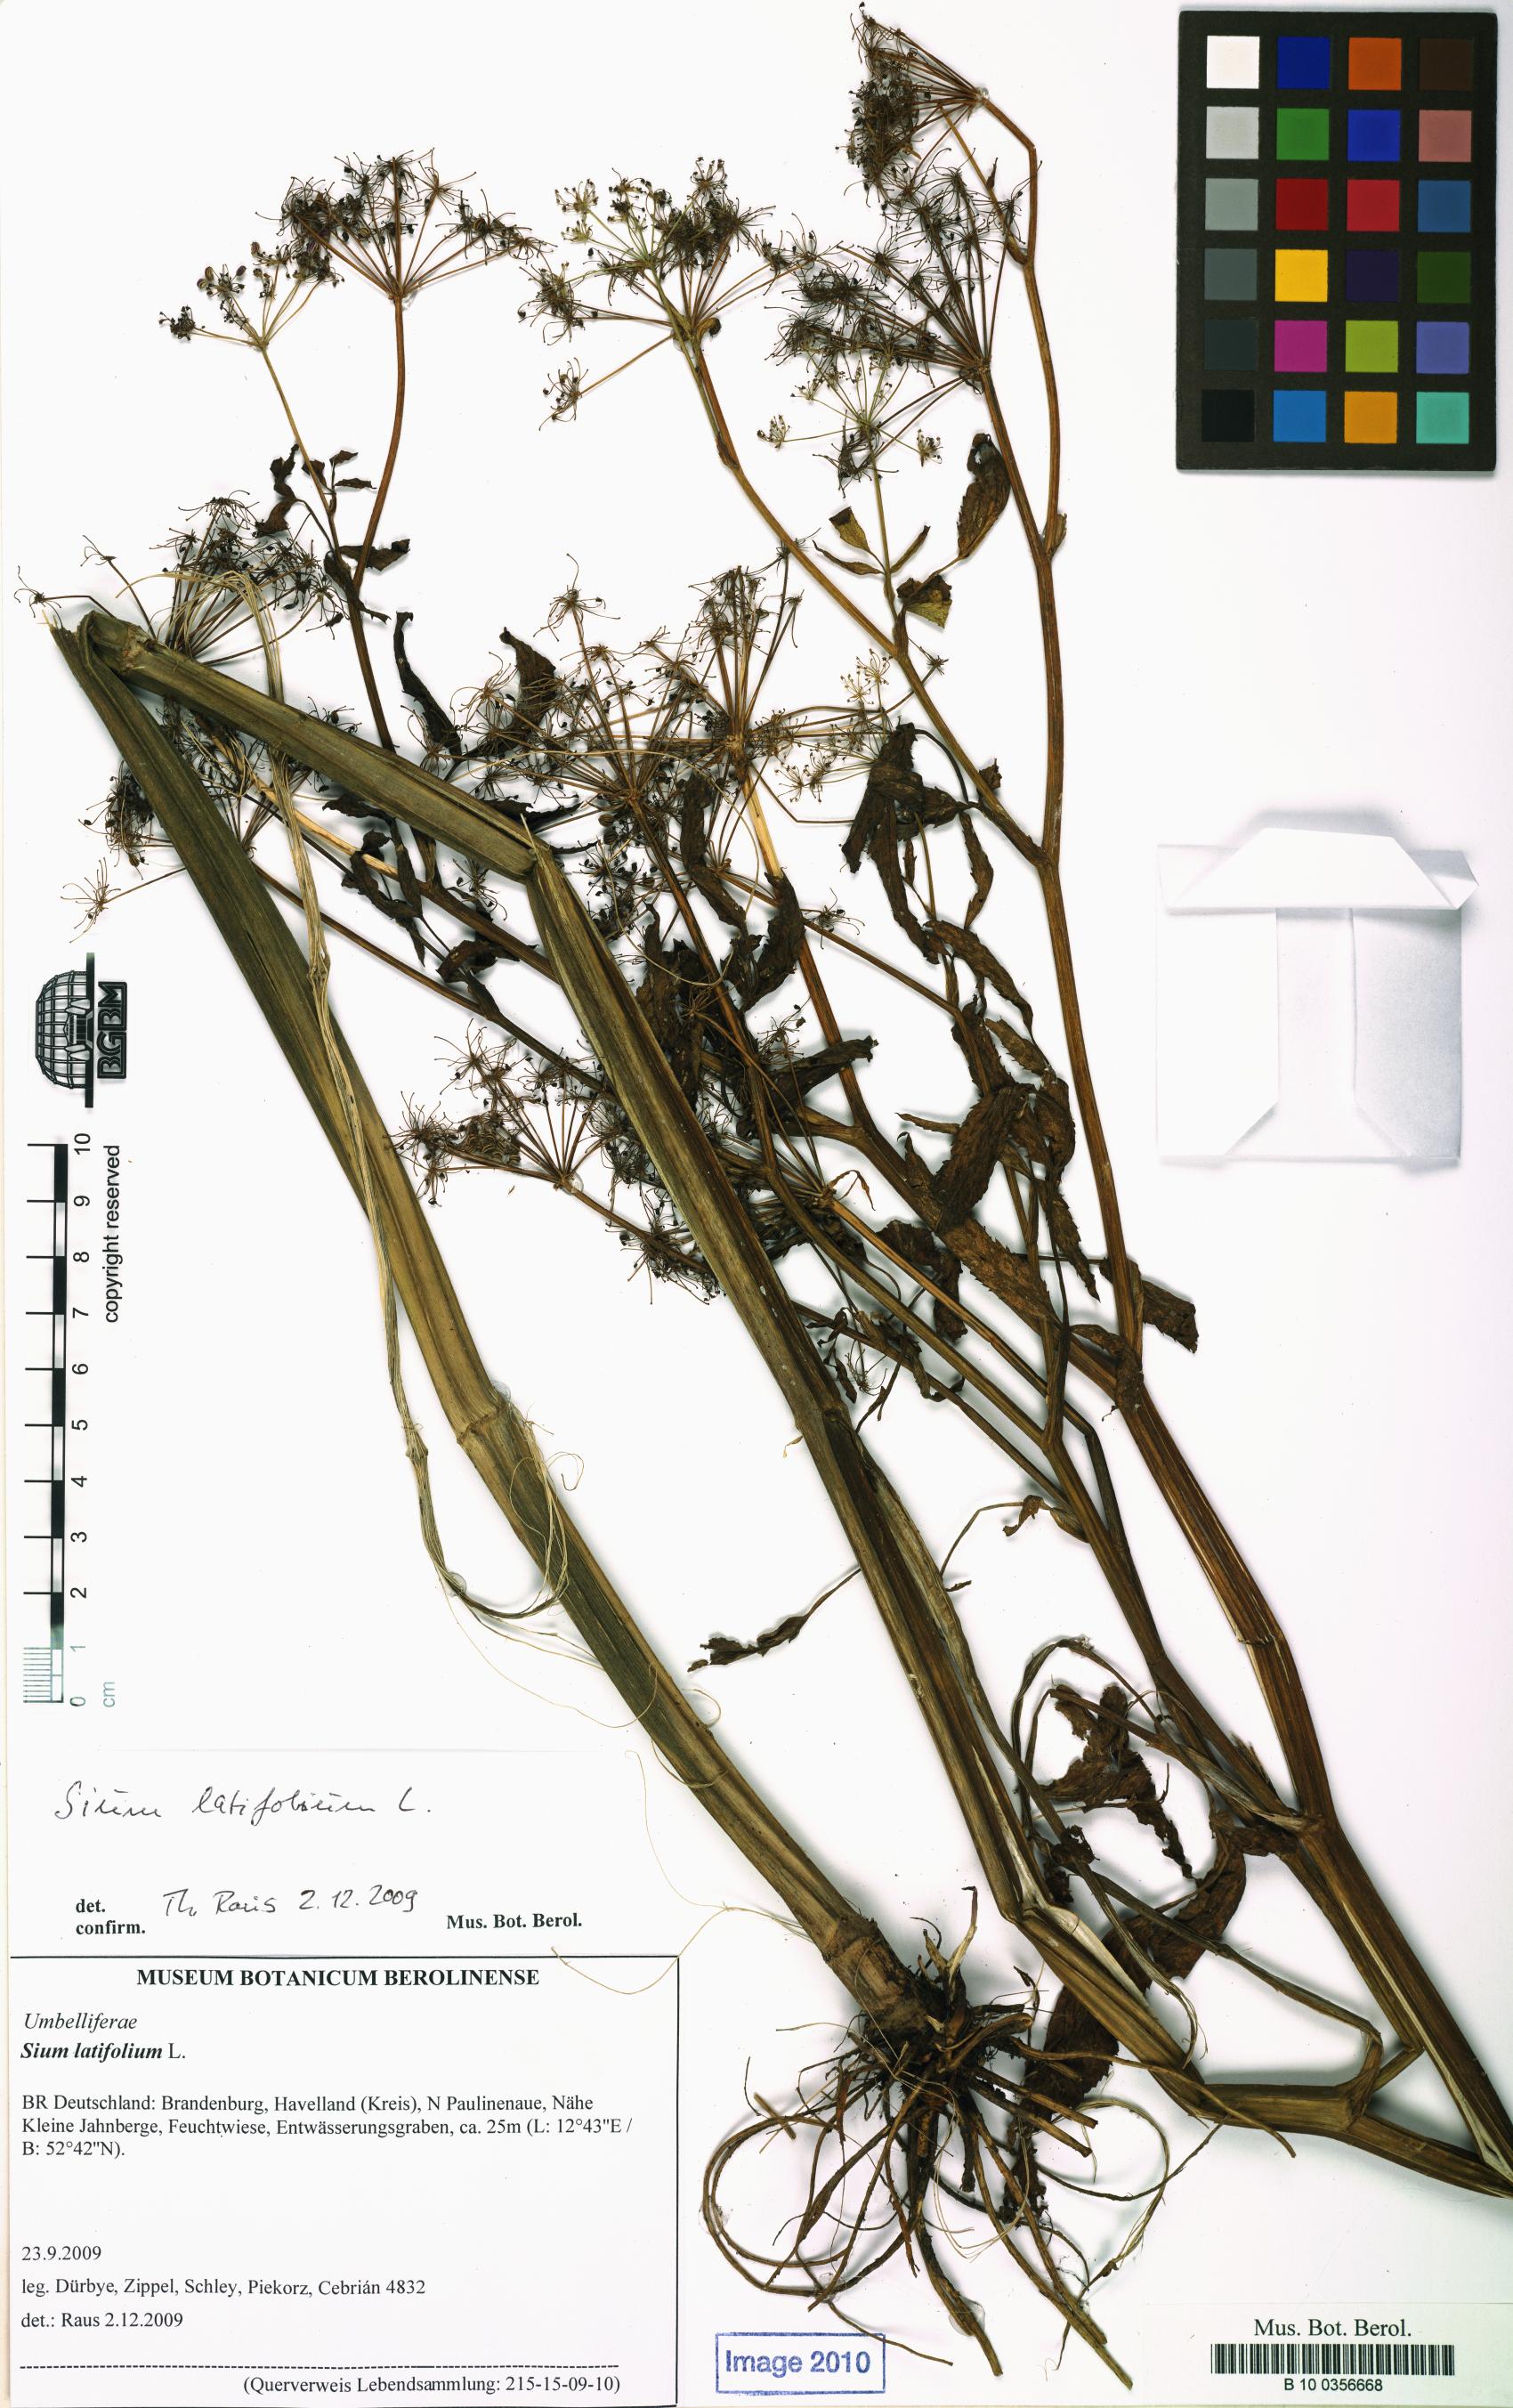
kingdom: Plantae
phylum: Tracheophyta
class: Magnoliopsida
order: Apiales
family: Apiaceae
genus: Sium
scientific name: Sium latifolium
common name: Greater water-parsnip
